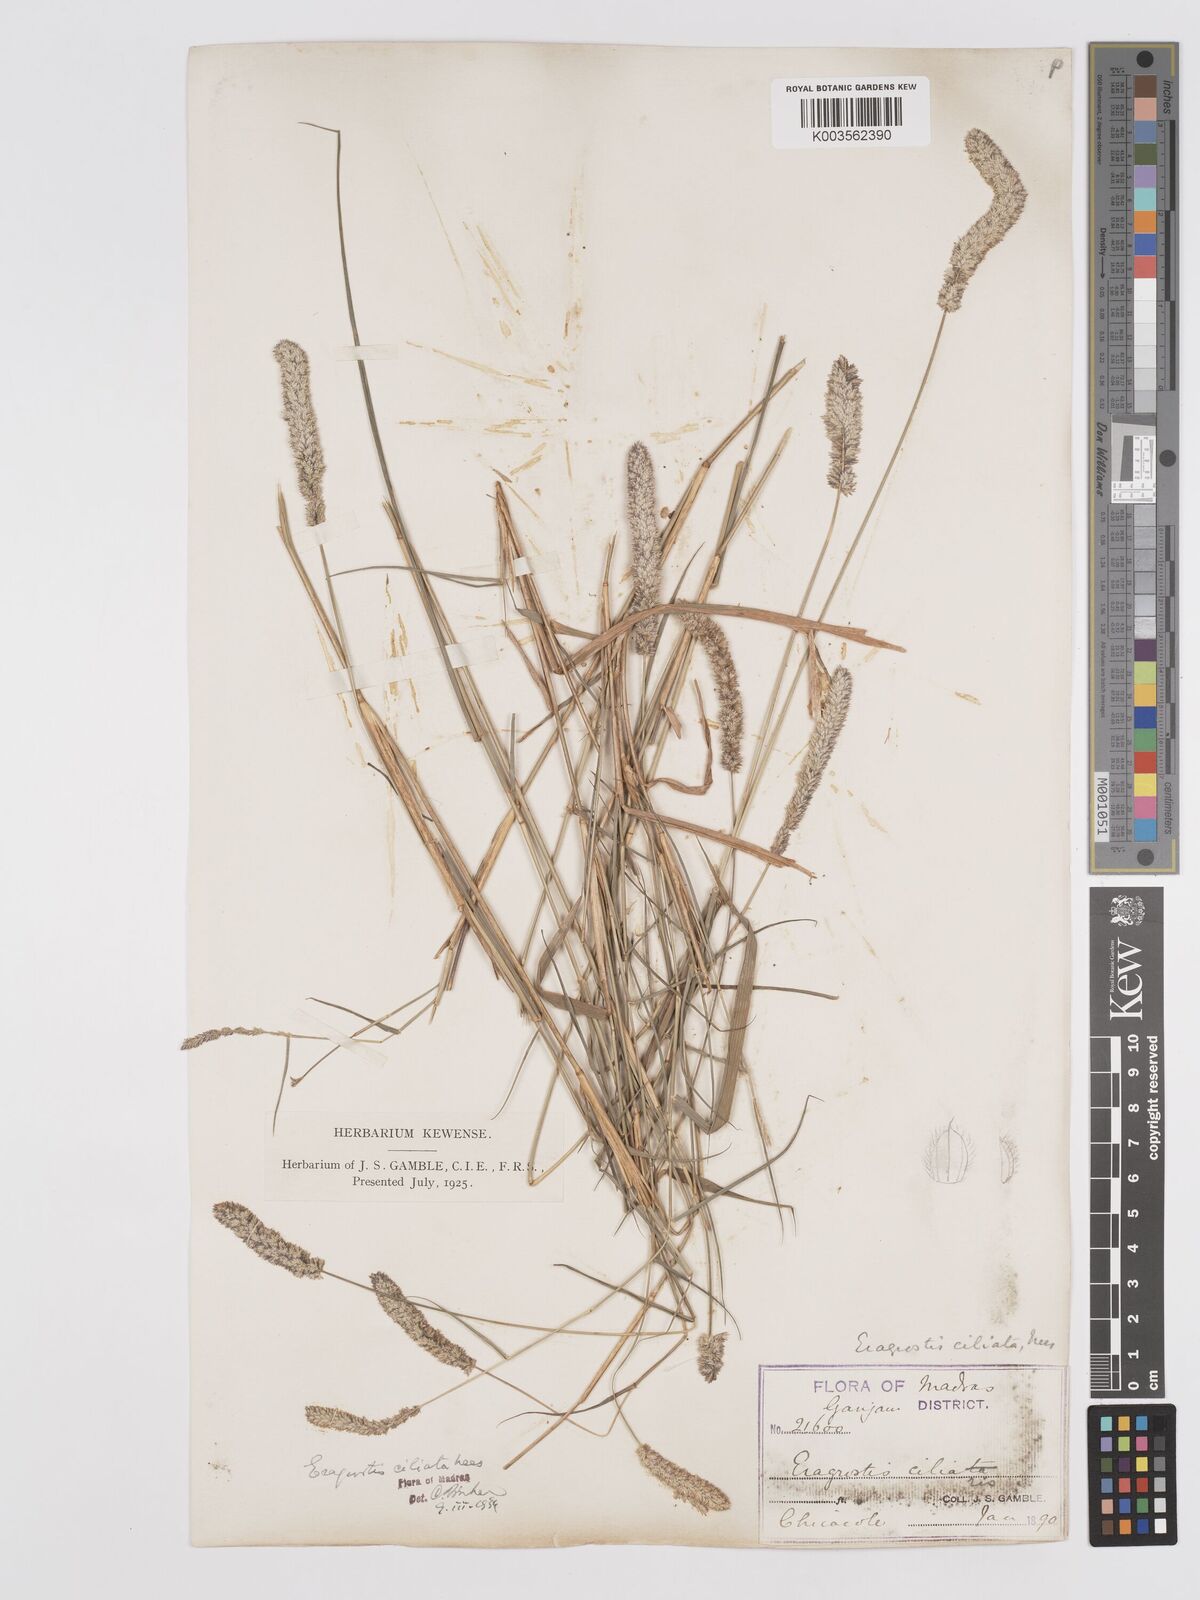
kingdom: Plantae
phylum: Tracheophyta
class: Liliopsida
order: Poales
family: Poaceae
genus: Eragrostis
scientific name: Eragrostis ciliata
